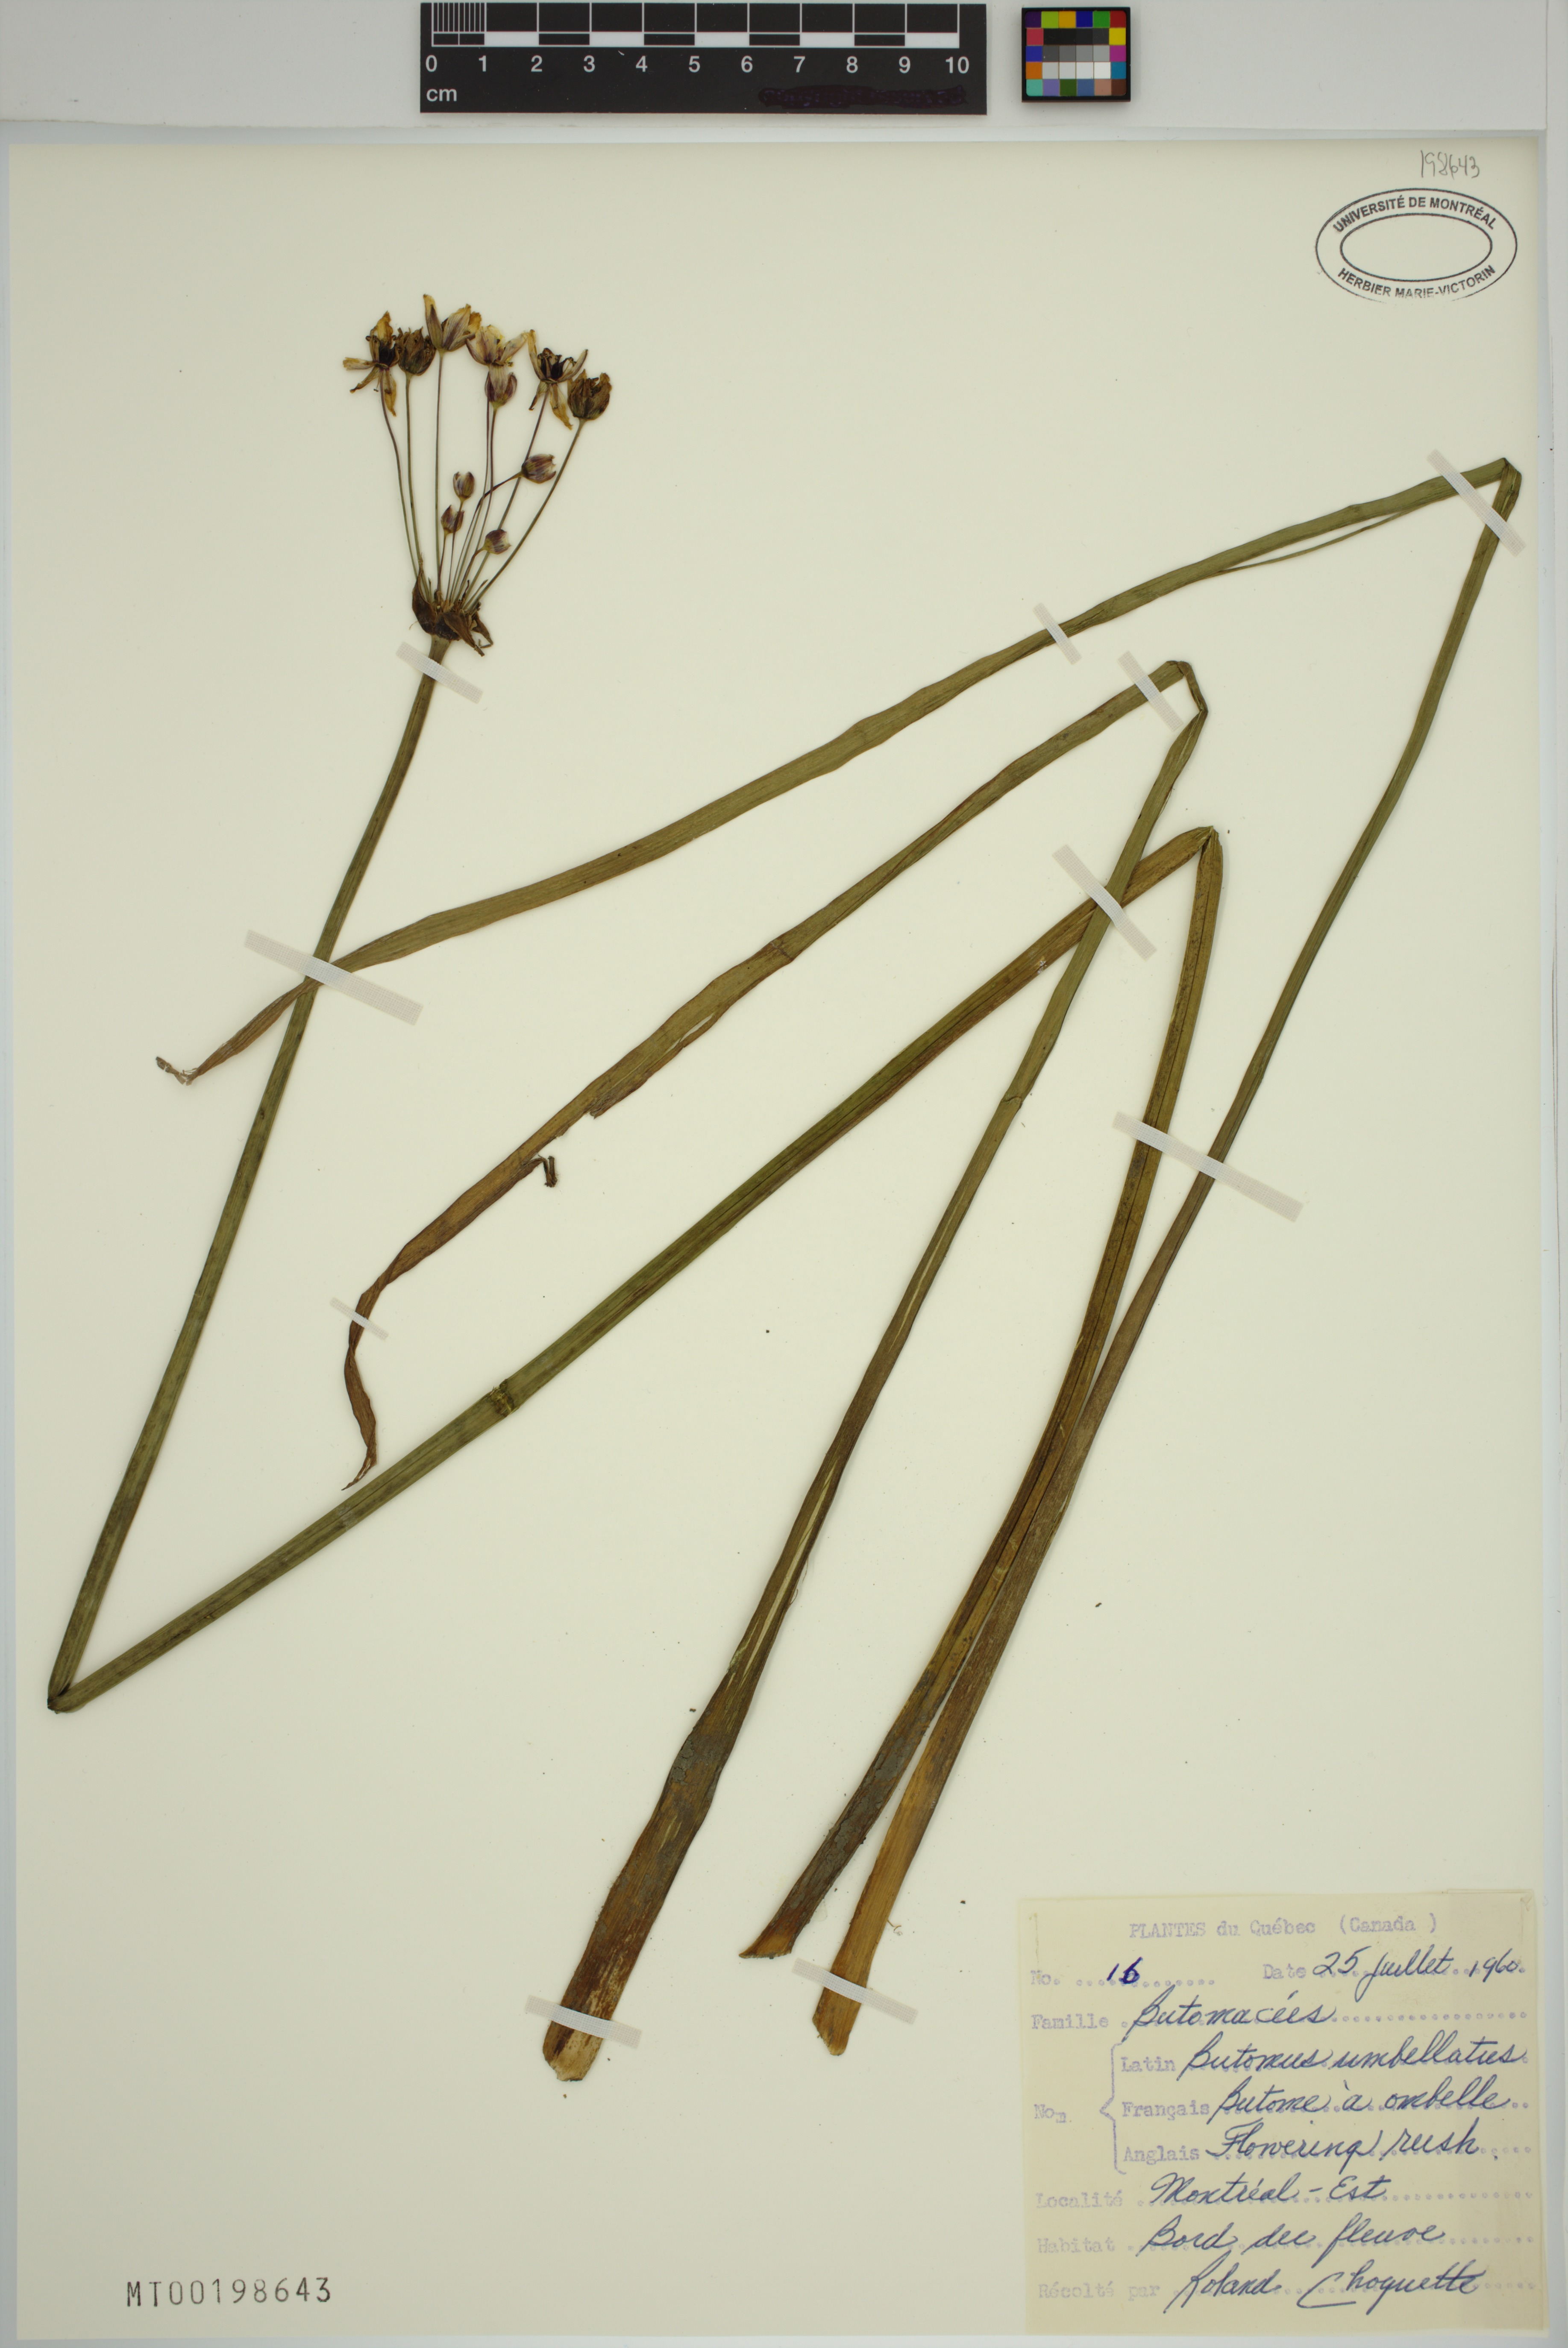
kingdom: Plantae
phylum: Tracheophyta
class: Liliopsida
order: Alismatales
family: Butomaceae
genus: Butomus
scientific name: Butomus umbellatus
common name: Flowering-rush
